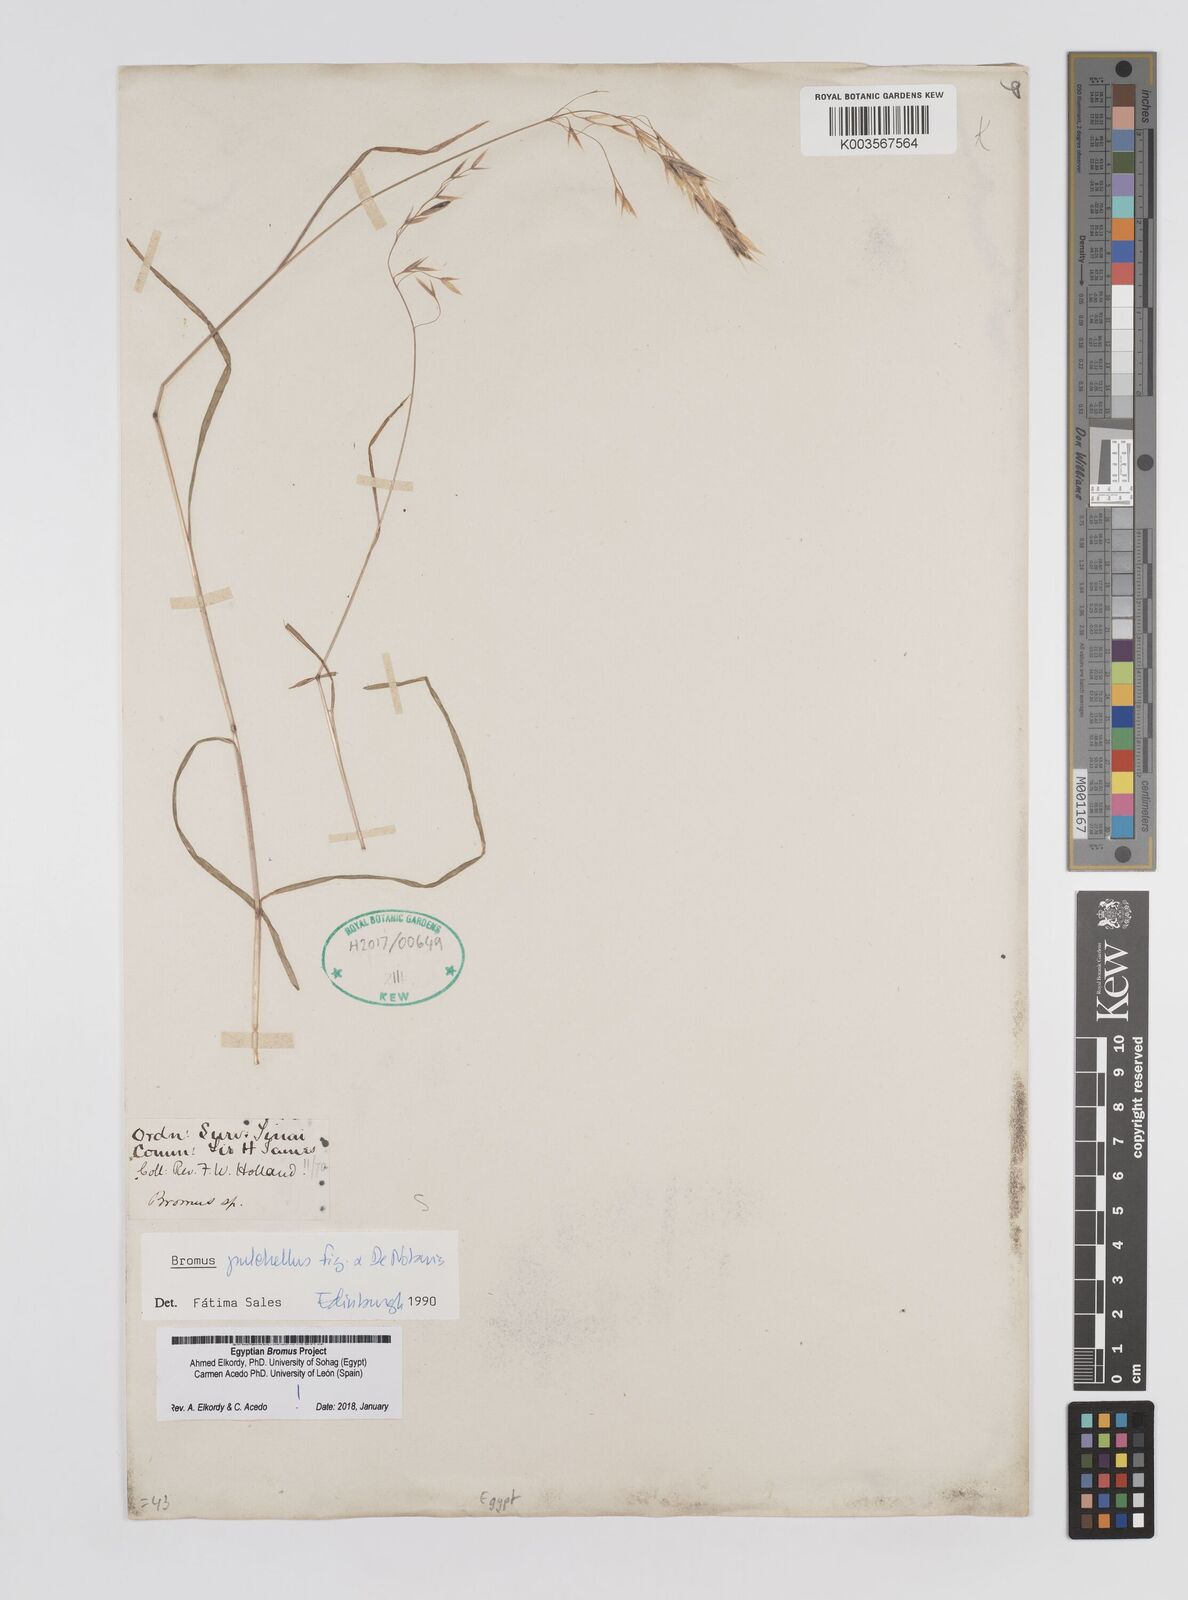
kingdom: Plantae
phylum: Tracheophyta
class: Liliopsida
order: Poales
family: Poaceae
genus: Bromus
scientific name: Bromus pectinatus
